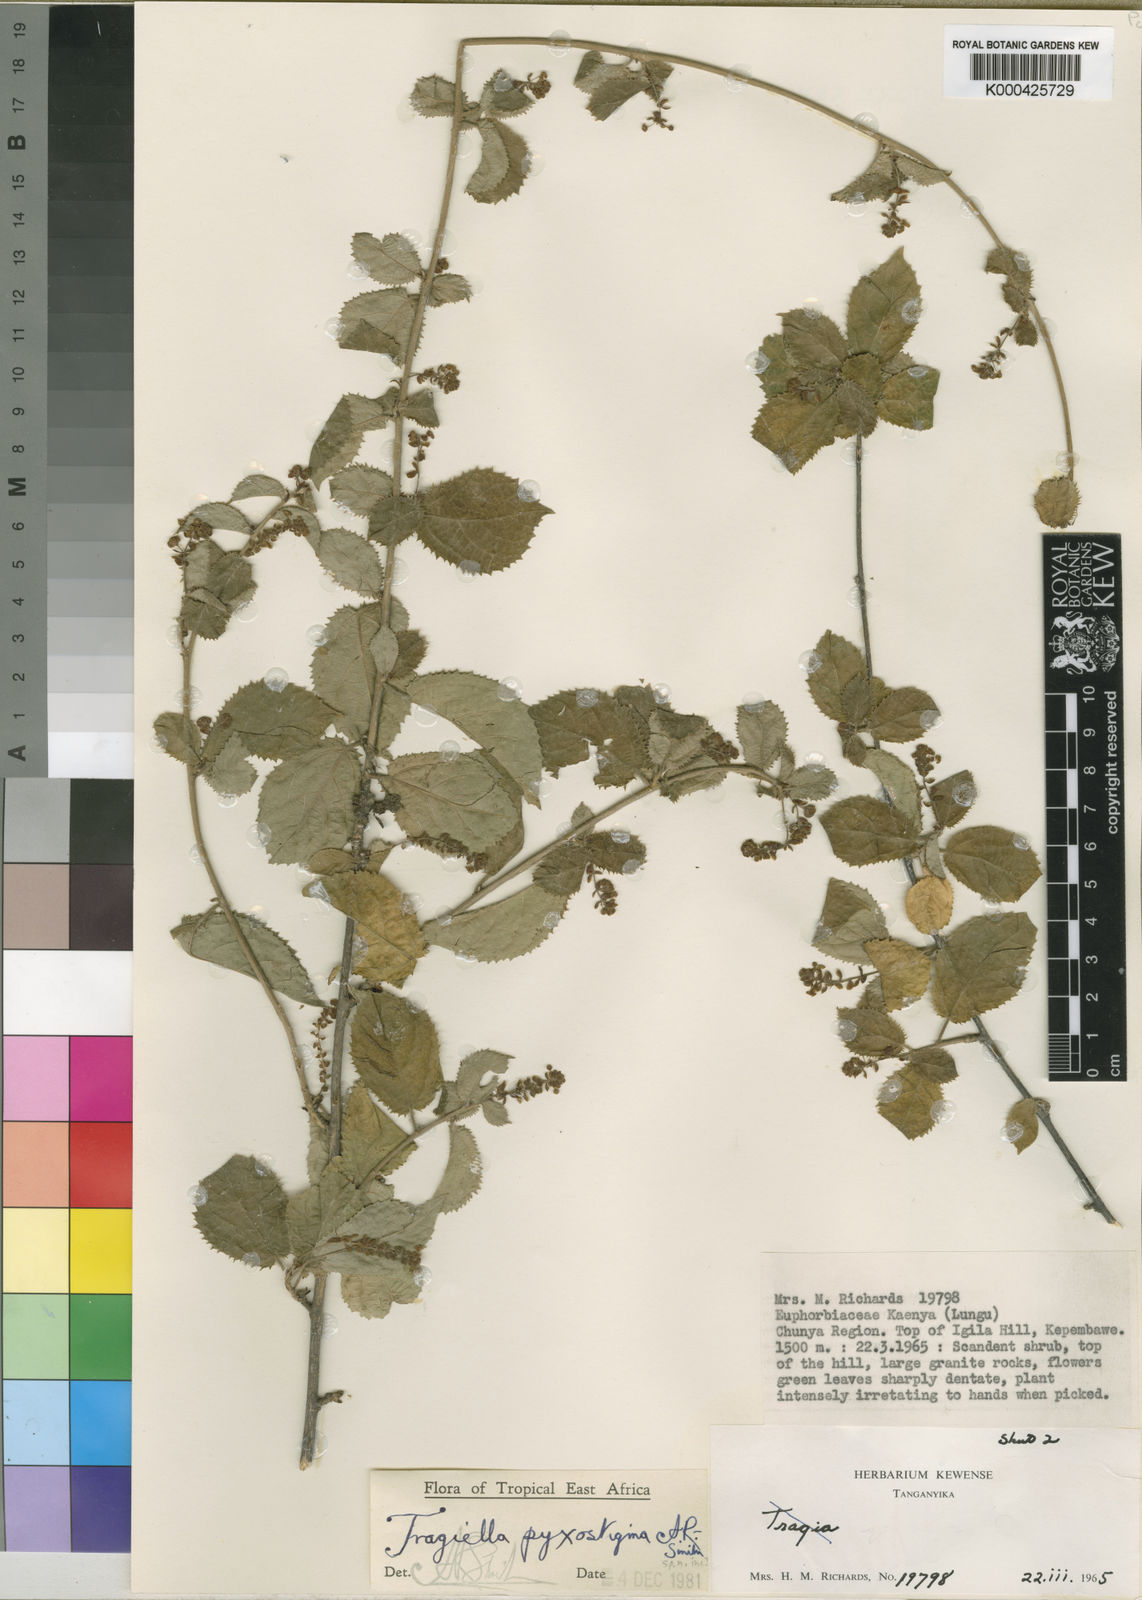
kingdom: Plantae
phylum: Tracheophyta
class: Magnoliopsida
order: Malpighiales
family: Euphorbiaceae
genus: Tragiella
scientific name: Tragiella pyxostigma
